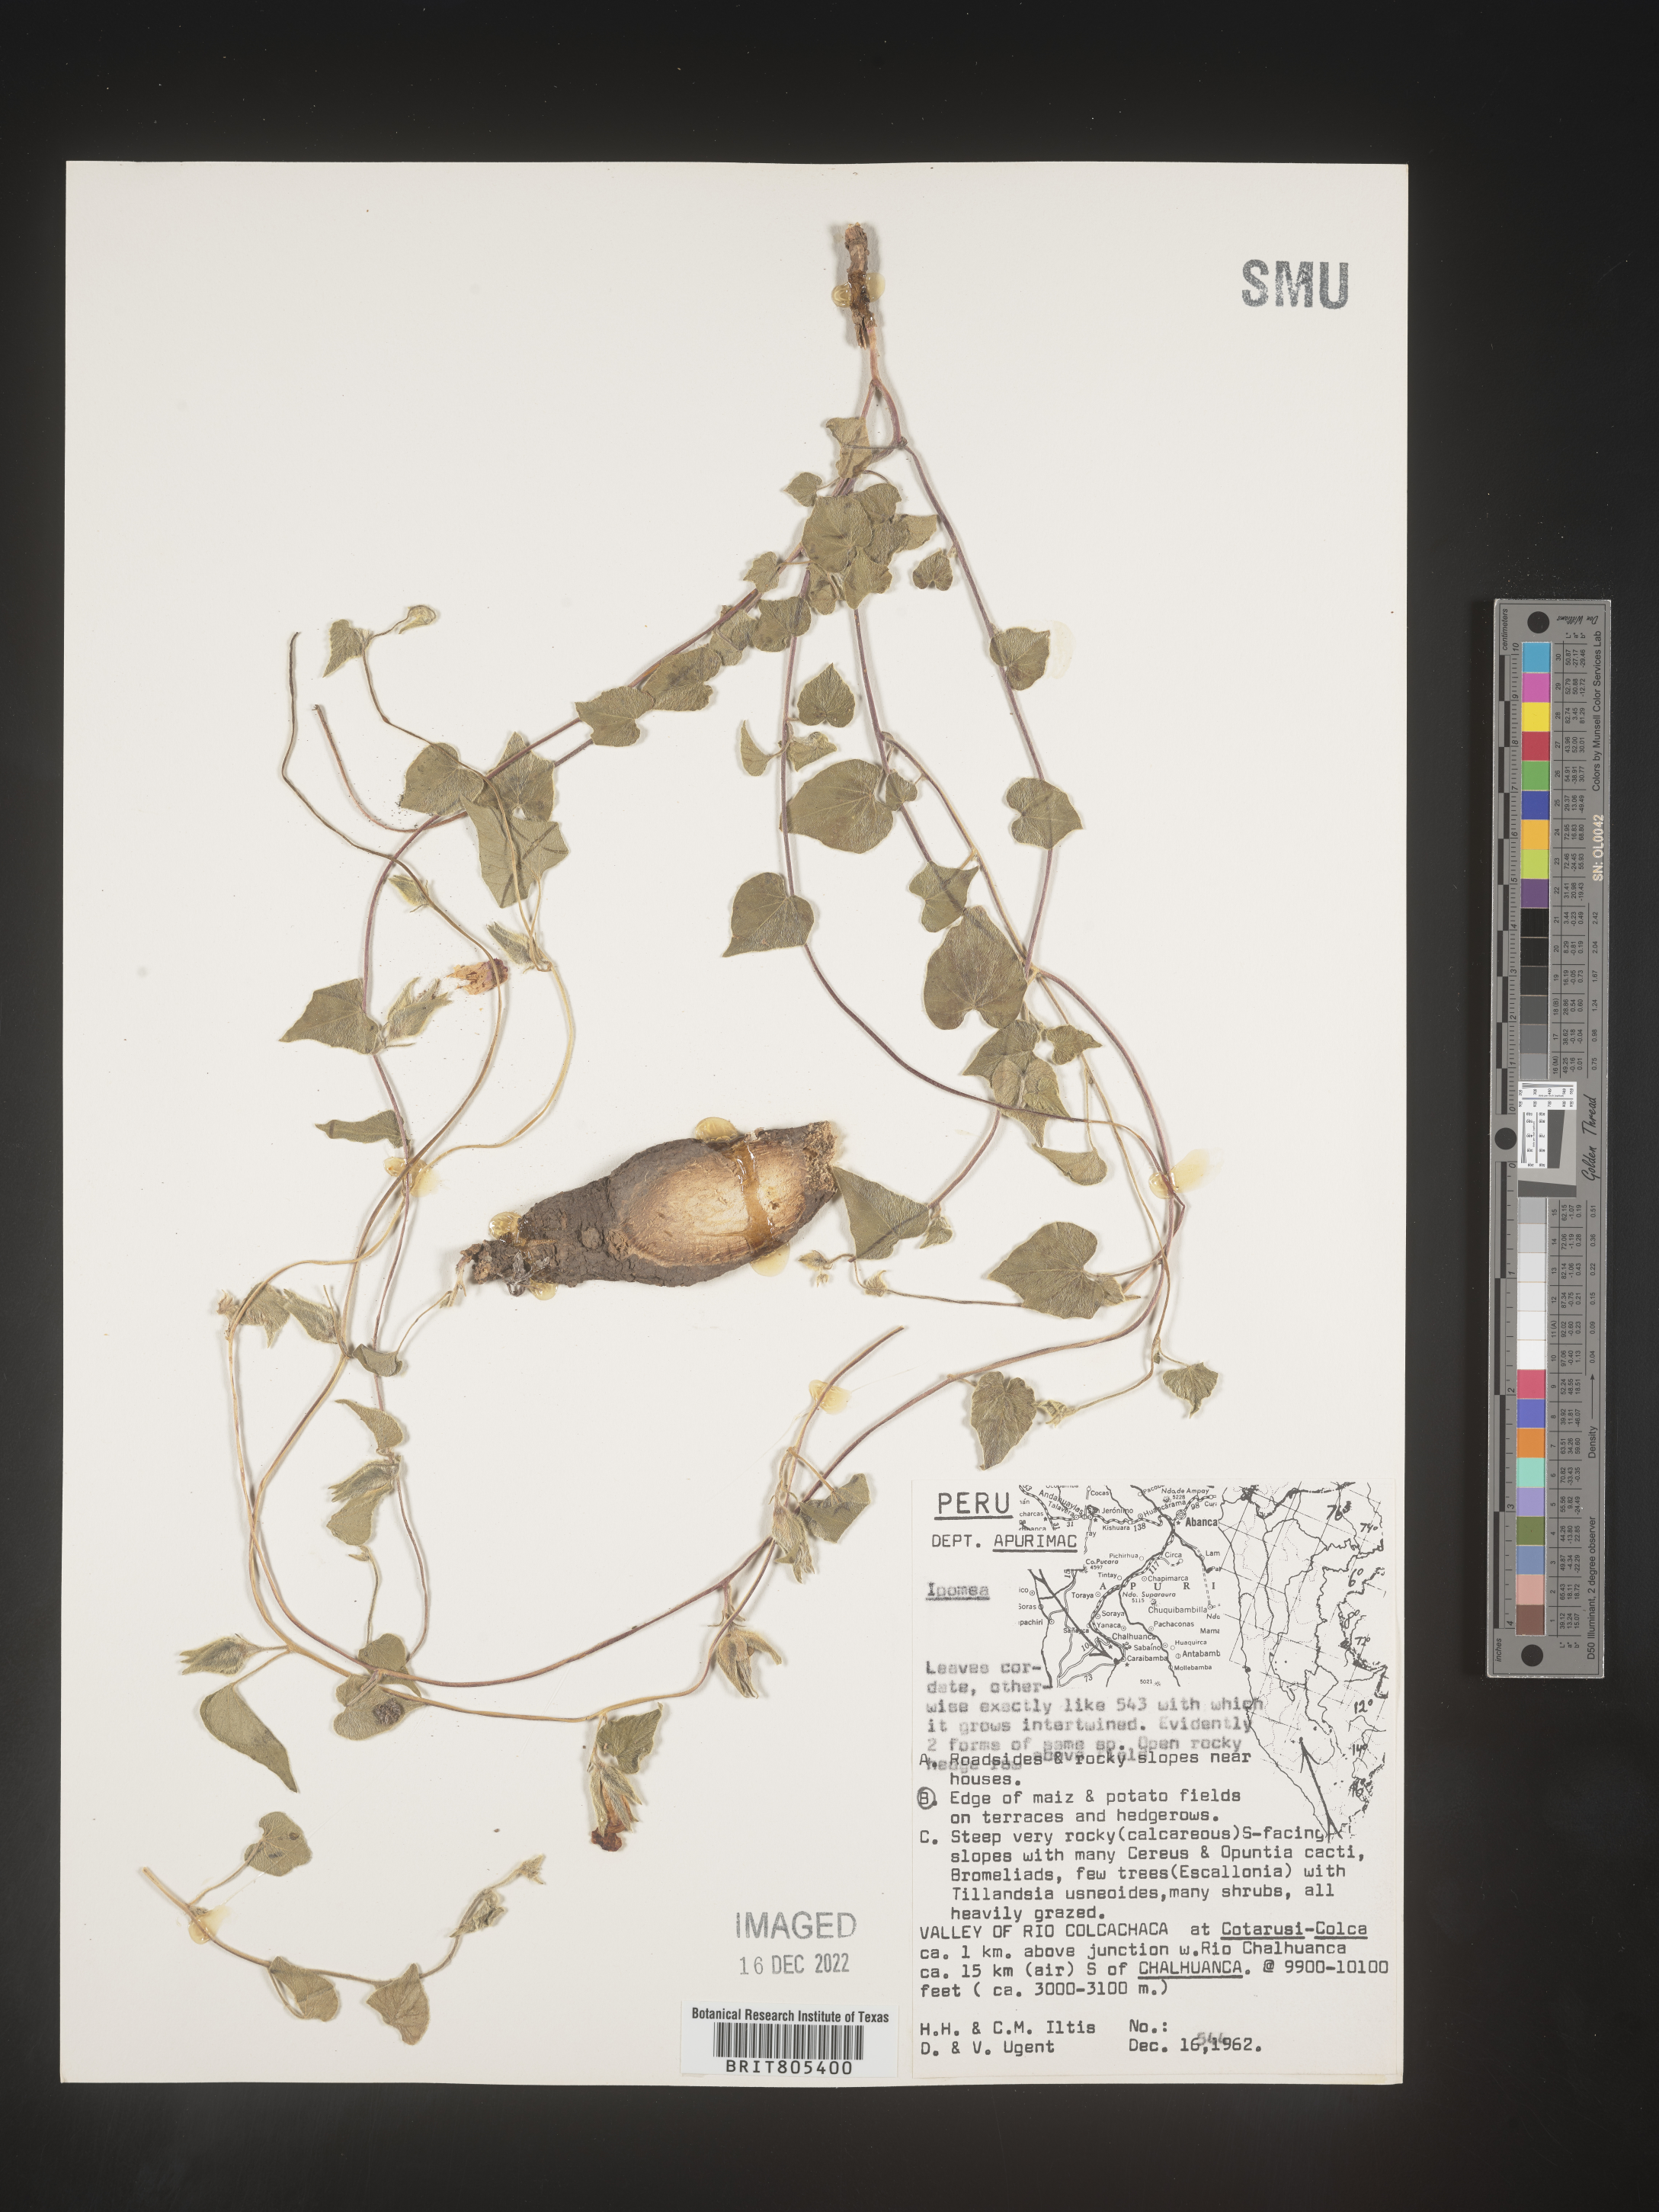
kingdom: Plantae
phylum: Tracheophyta
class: Magnoliopsida
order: Solanales
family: Convolvulaceae
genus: Ipomoea
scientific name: Ipomoea
